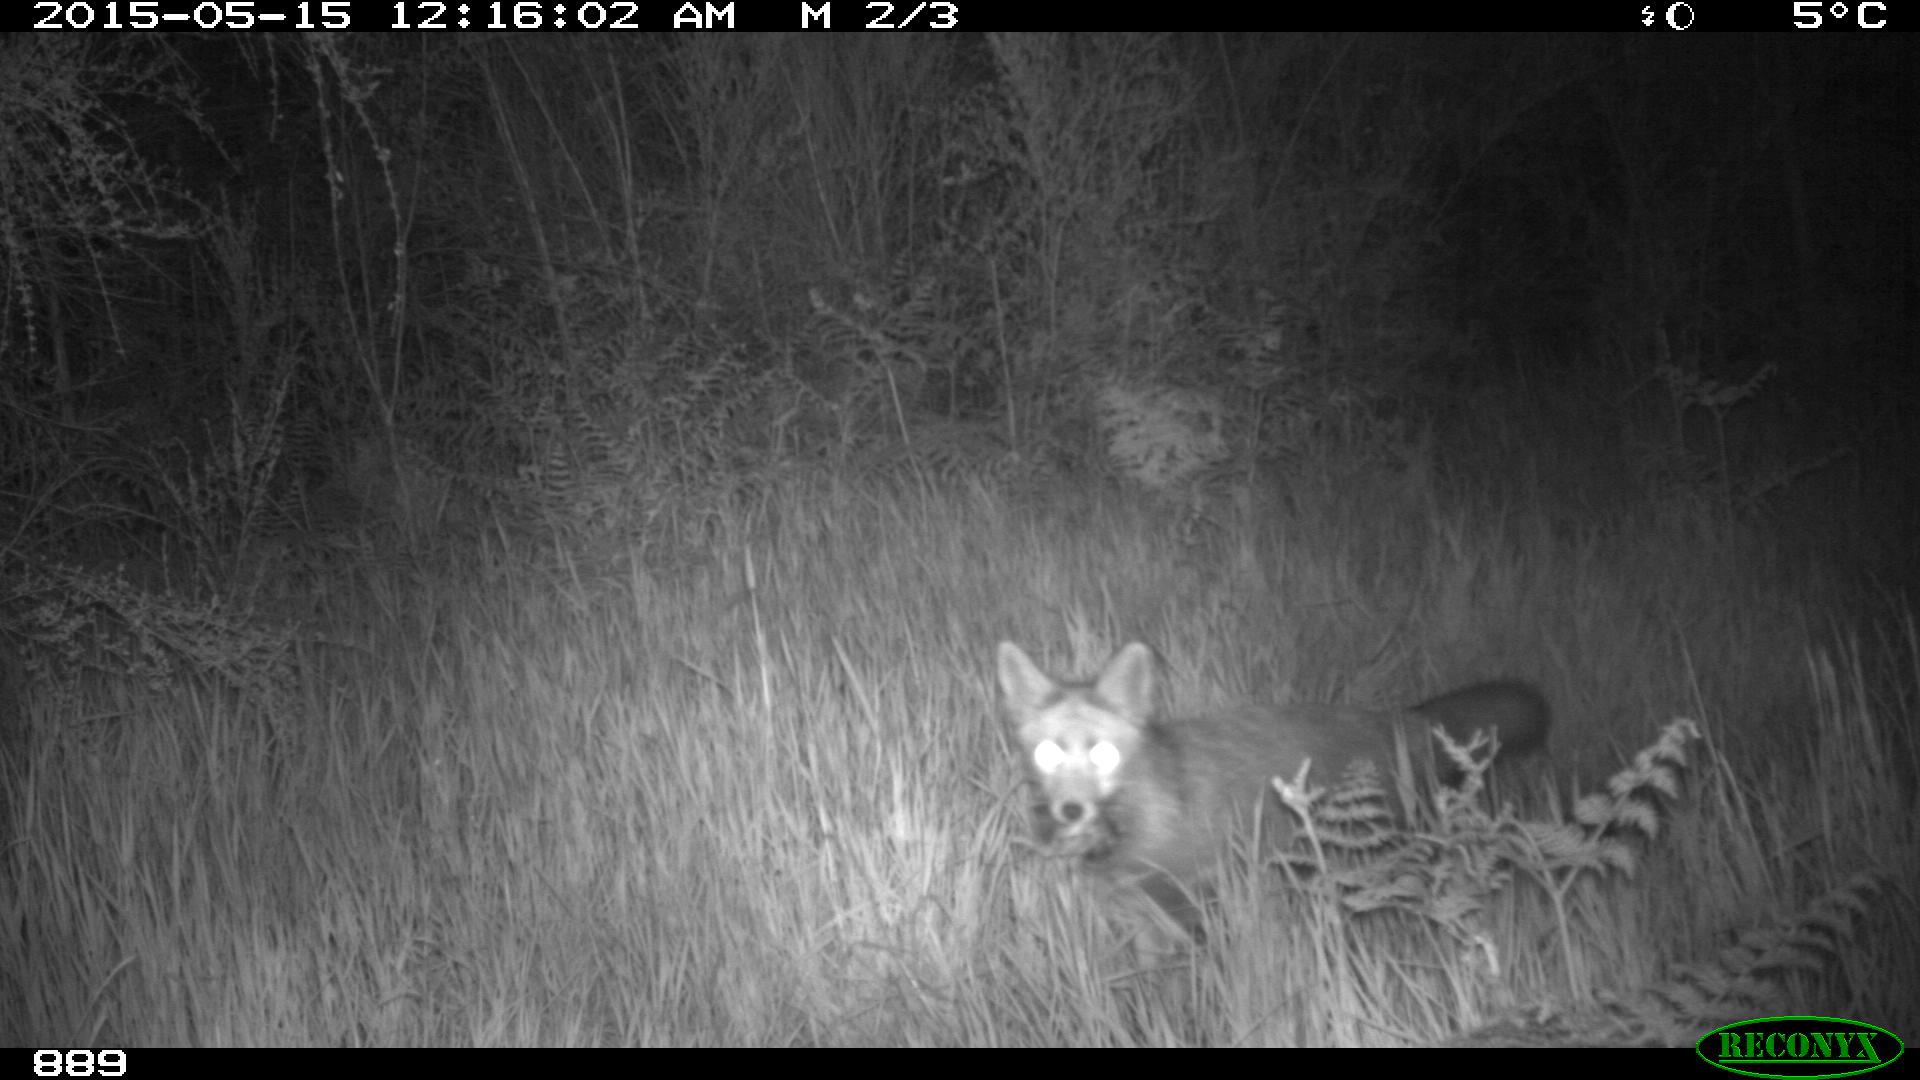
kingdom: Animalia
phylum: Chordata
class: Mammalia
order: Carnivora
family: Canidae
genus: Vulpes
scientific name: Vulpes vulpes
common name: Red fox
